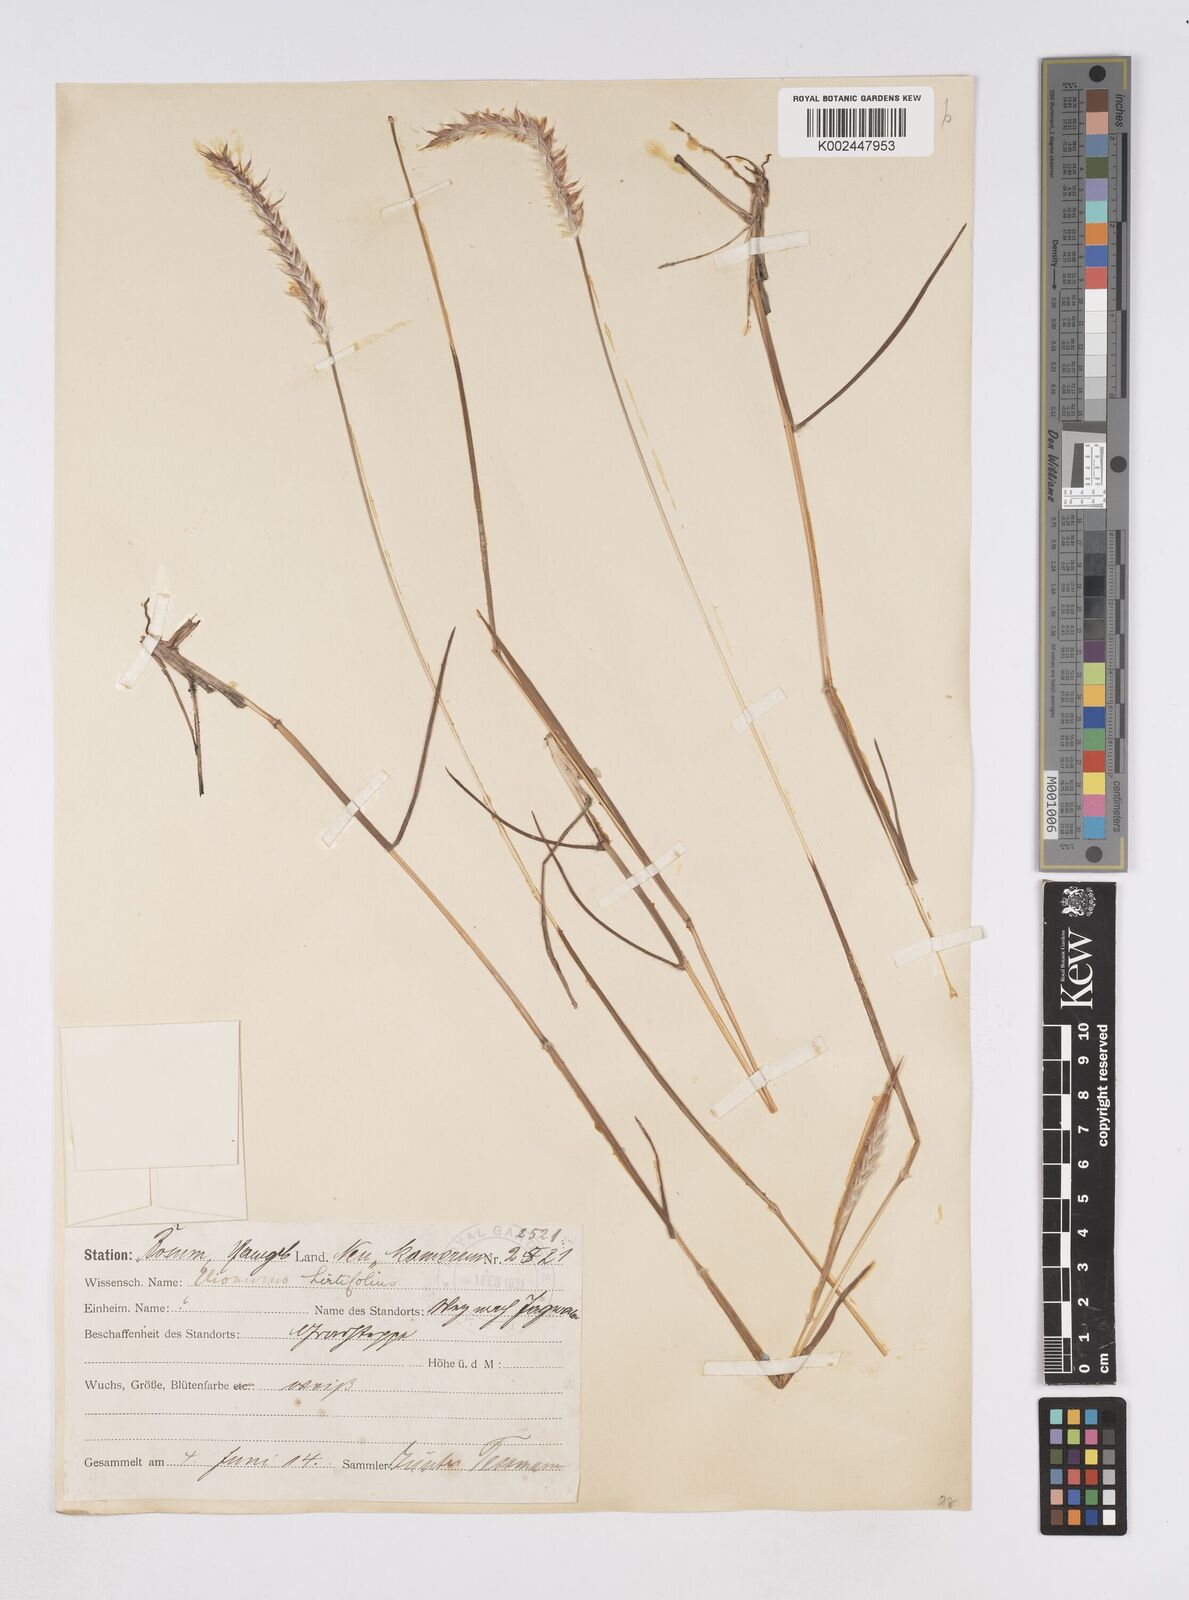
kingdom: Plantae
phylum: Tracheophyta
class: Liliopsida
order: Poales
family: Poaceae
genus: Elionurus
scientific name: Elionurus hirtifolius
